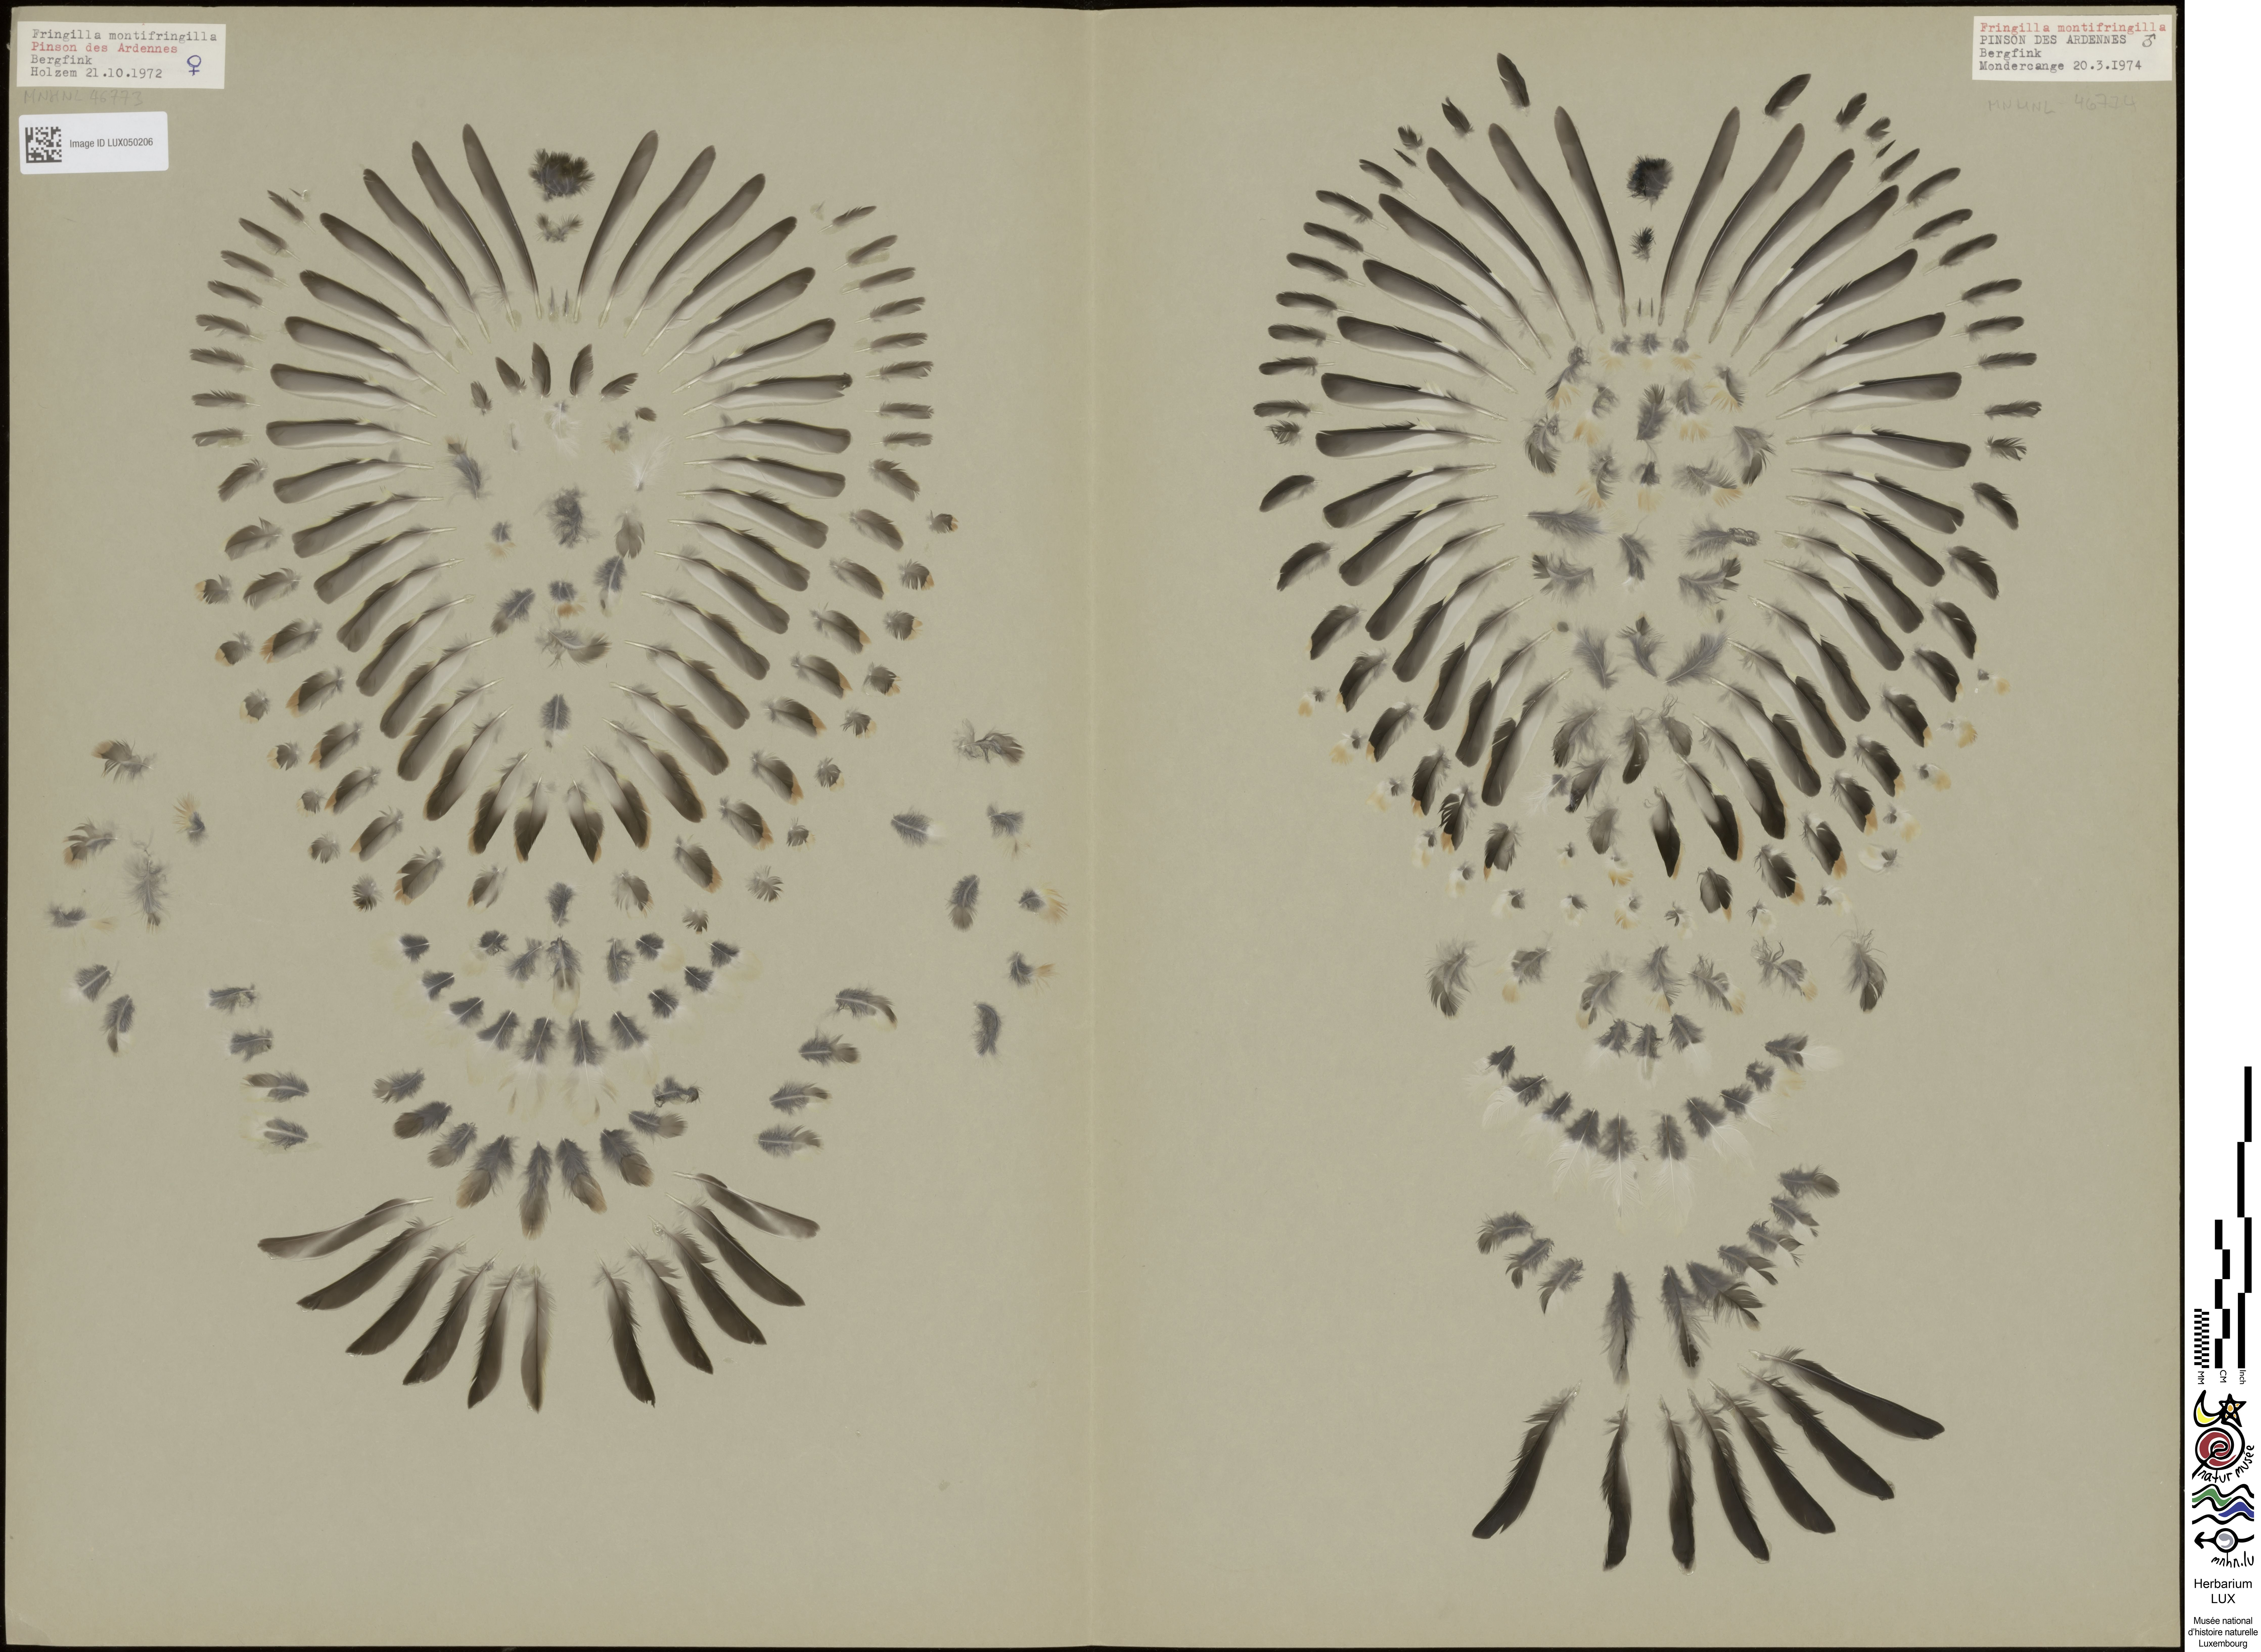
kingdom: Animalia
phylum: Chordata
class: Aves
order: Passeriformes
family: Fringillidae
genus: Fringilla
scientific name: Fringilla montifringilla
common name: Brambling
